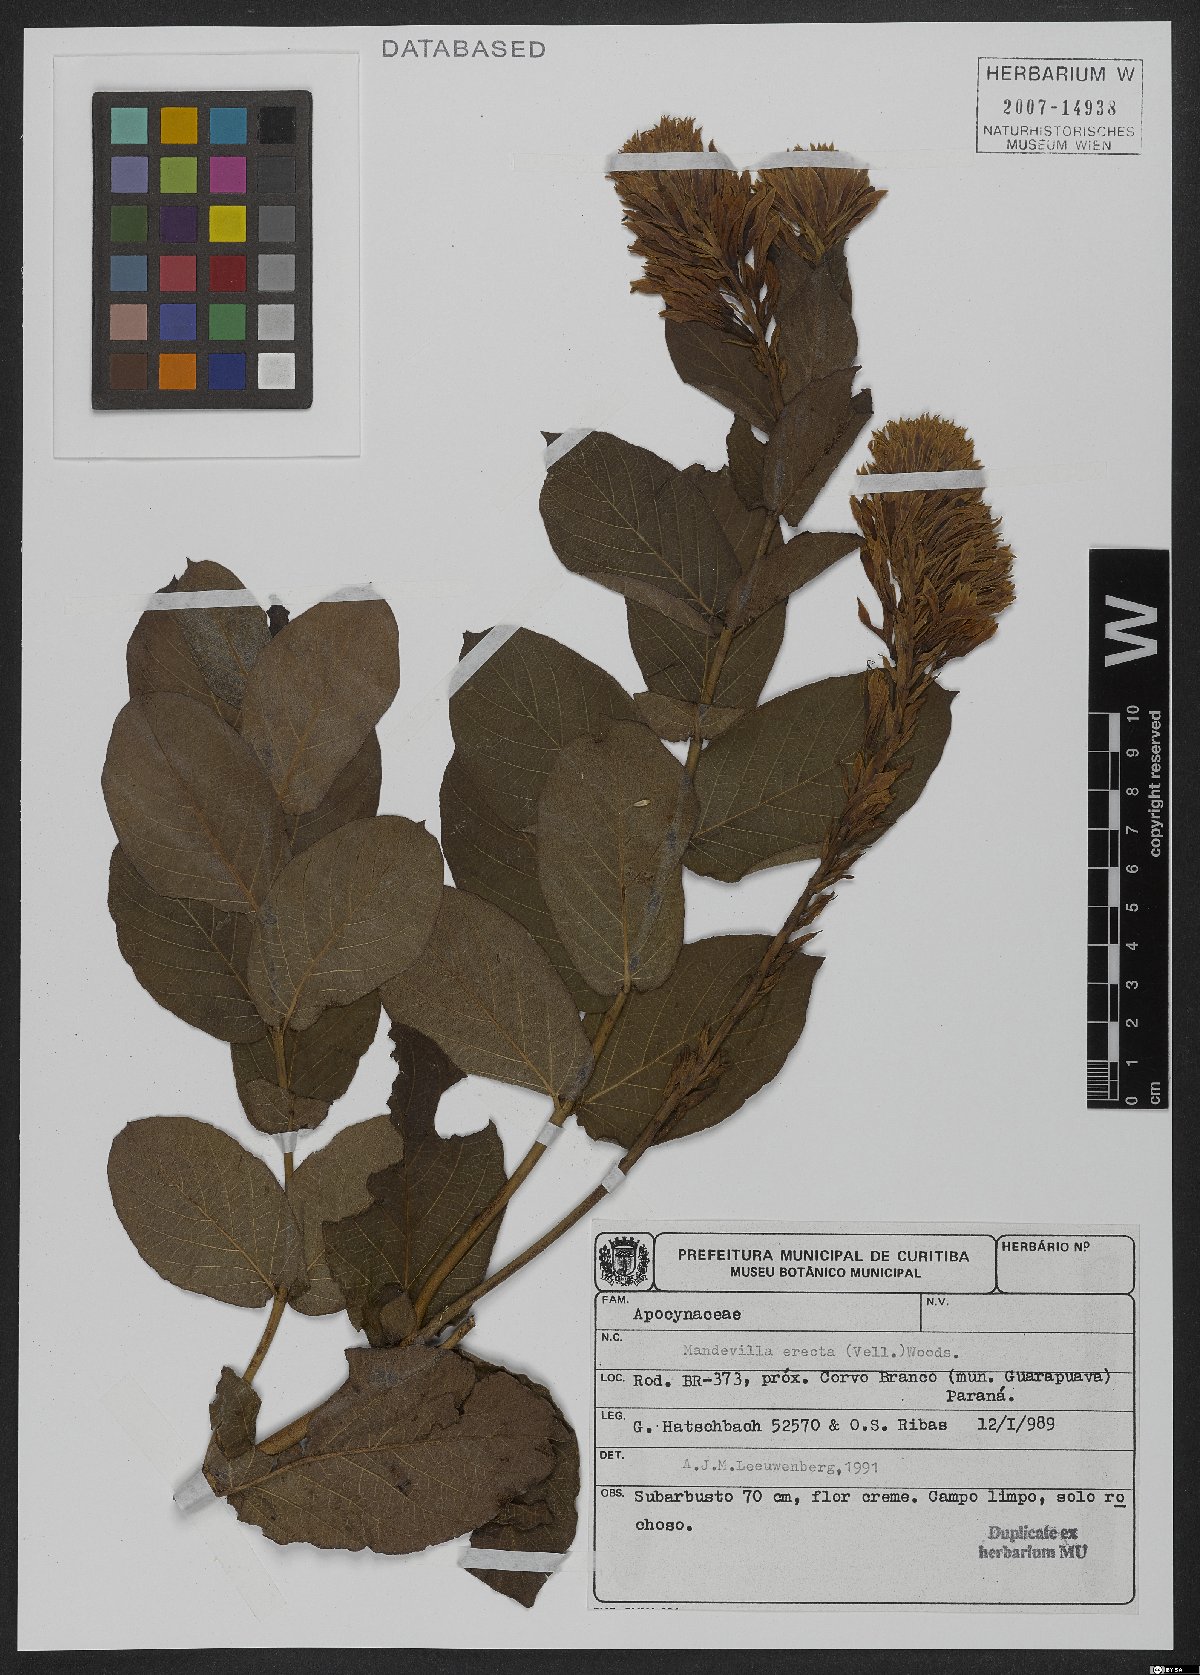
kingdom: Plantae
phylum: Tracheophyta
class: Magnoliopsida
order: Gentianales
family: Apocynaceae
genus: Mandevilla
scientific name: Mandevilla emarginata
